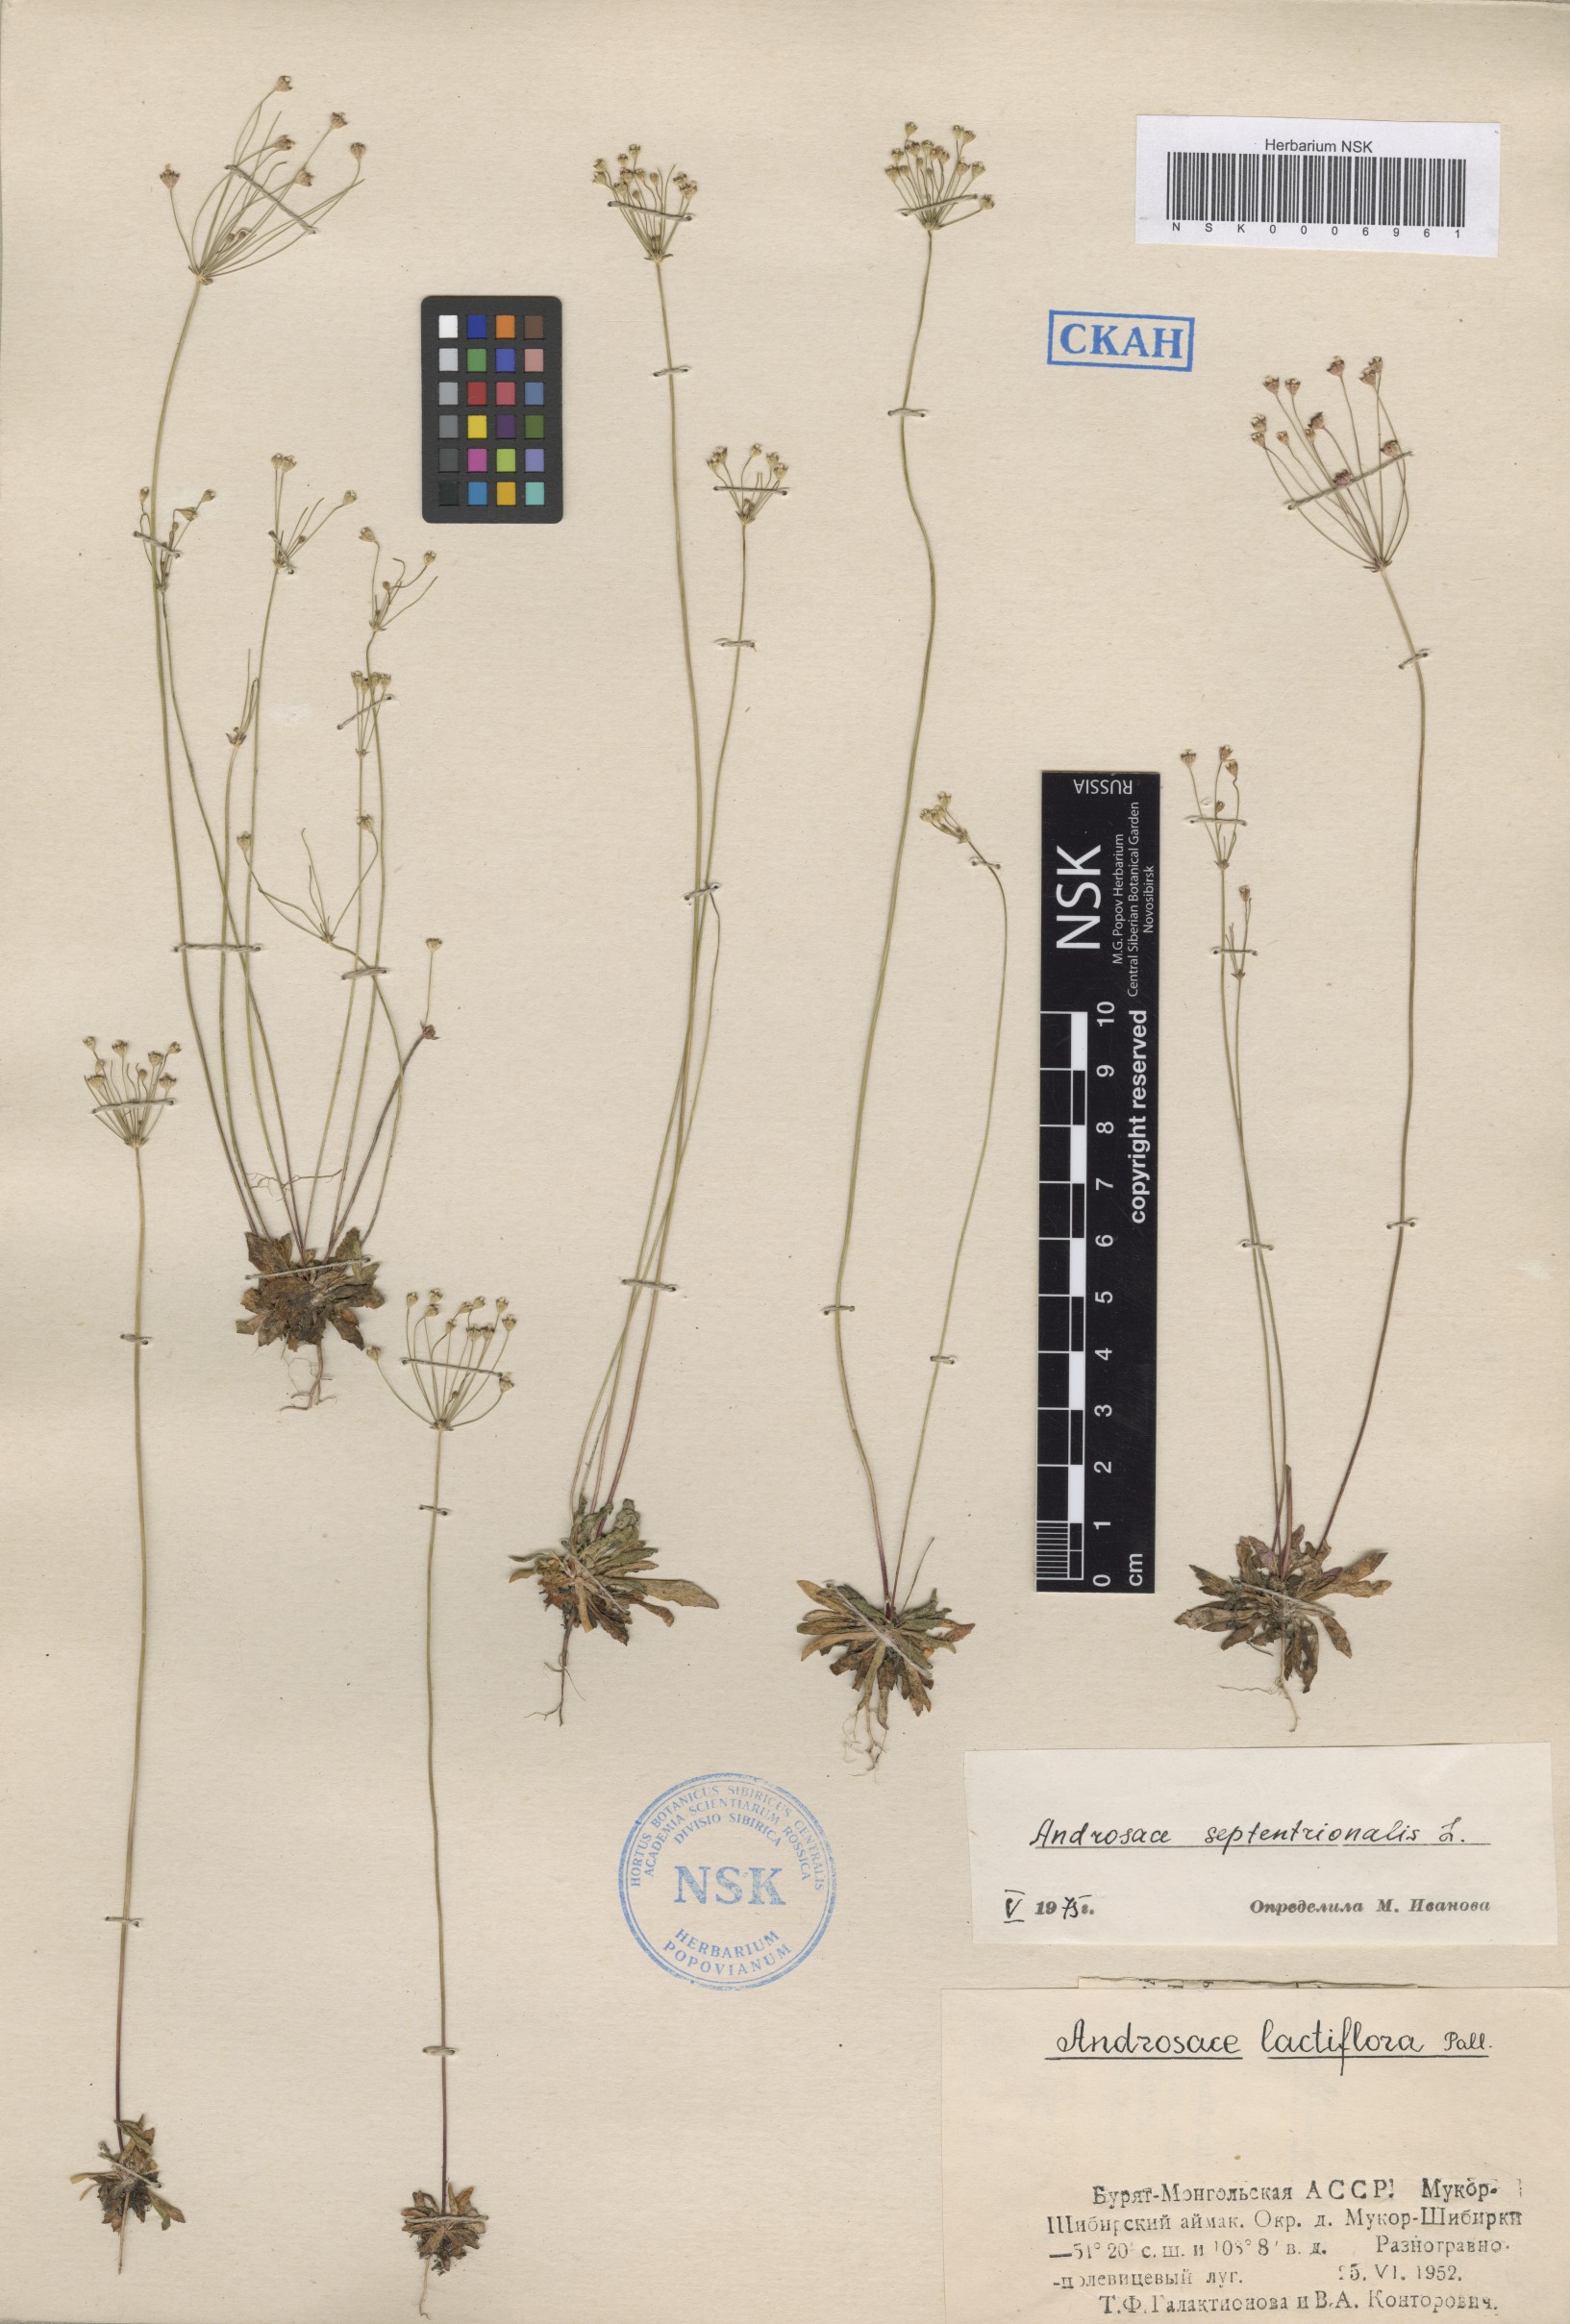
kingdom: Plantae
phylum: Tracheophyta
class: Magnoliopsida
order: Ericales
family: Primulaceae
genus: Androsace
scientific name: Androsace septentrionalis
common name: Hairy northern fairy-candelabra
